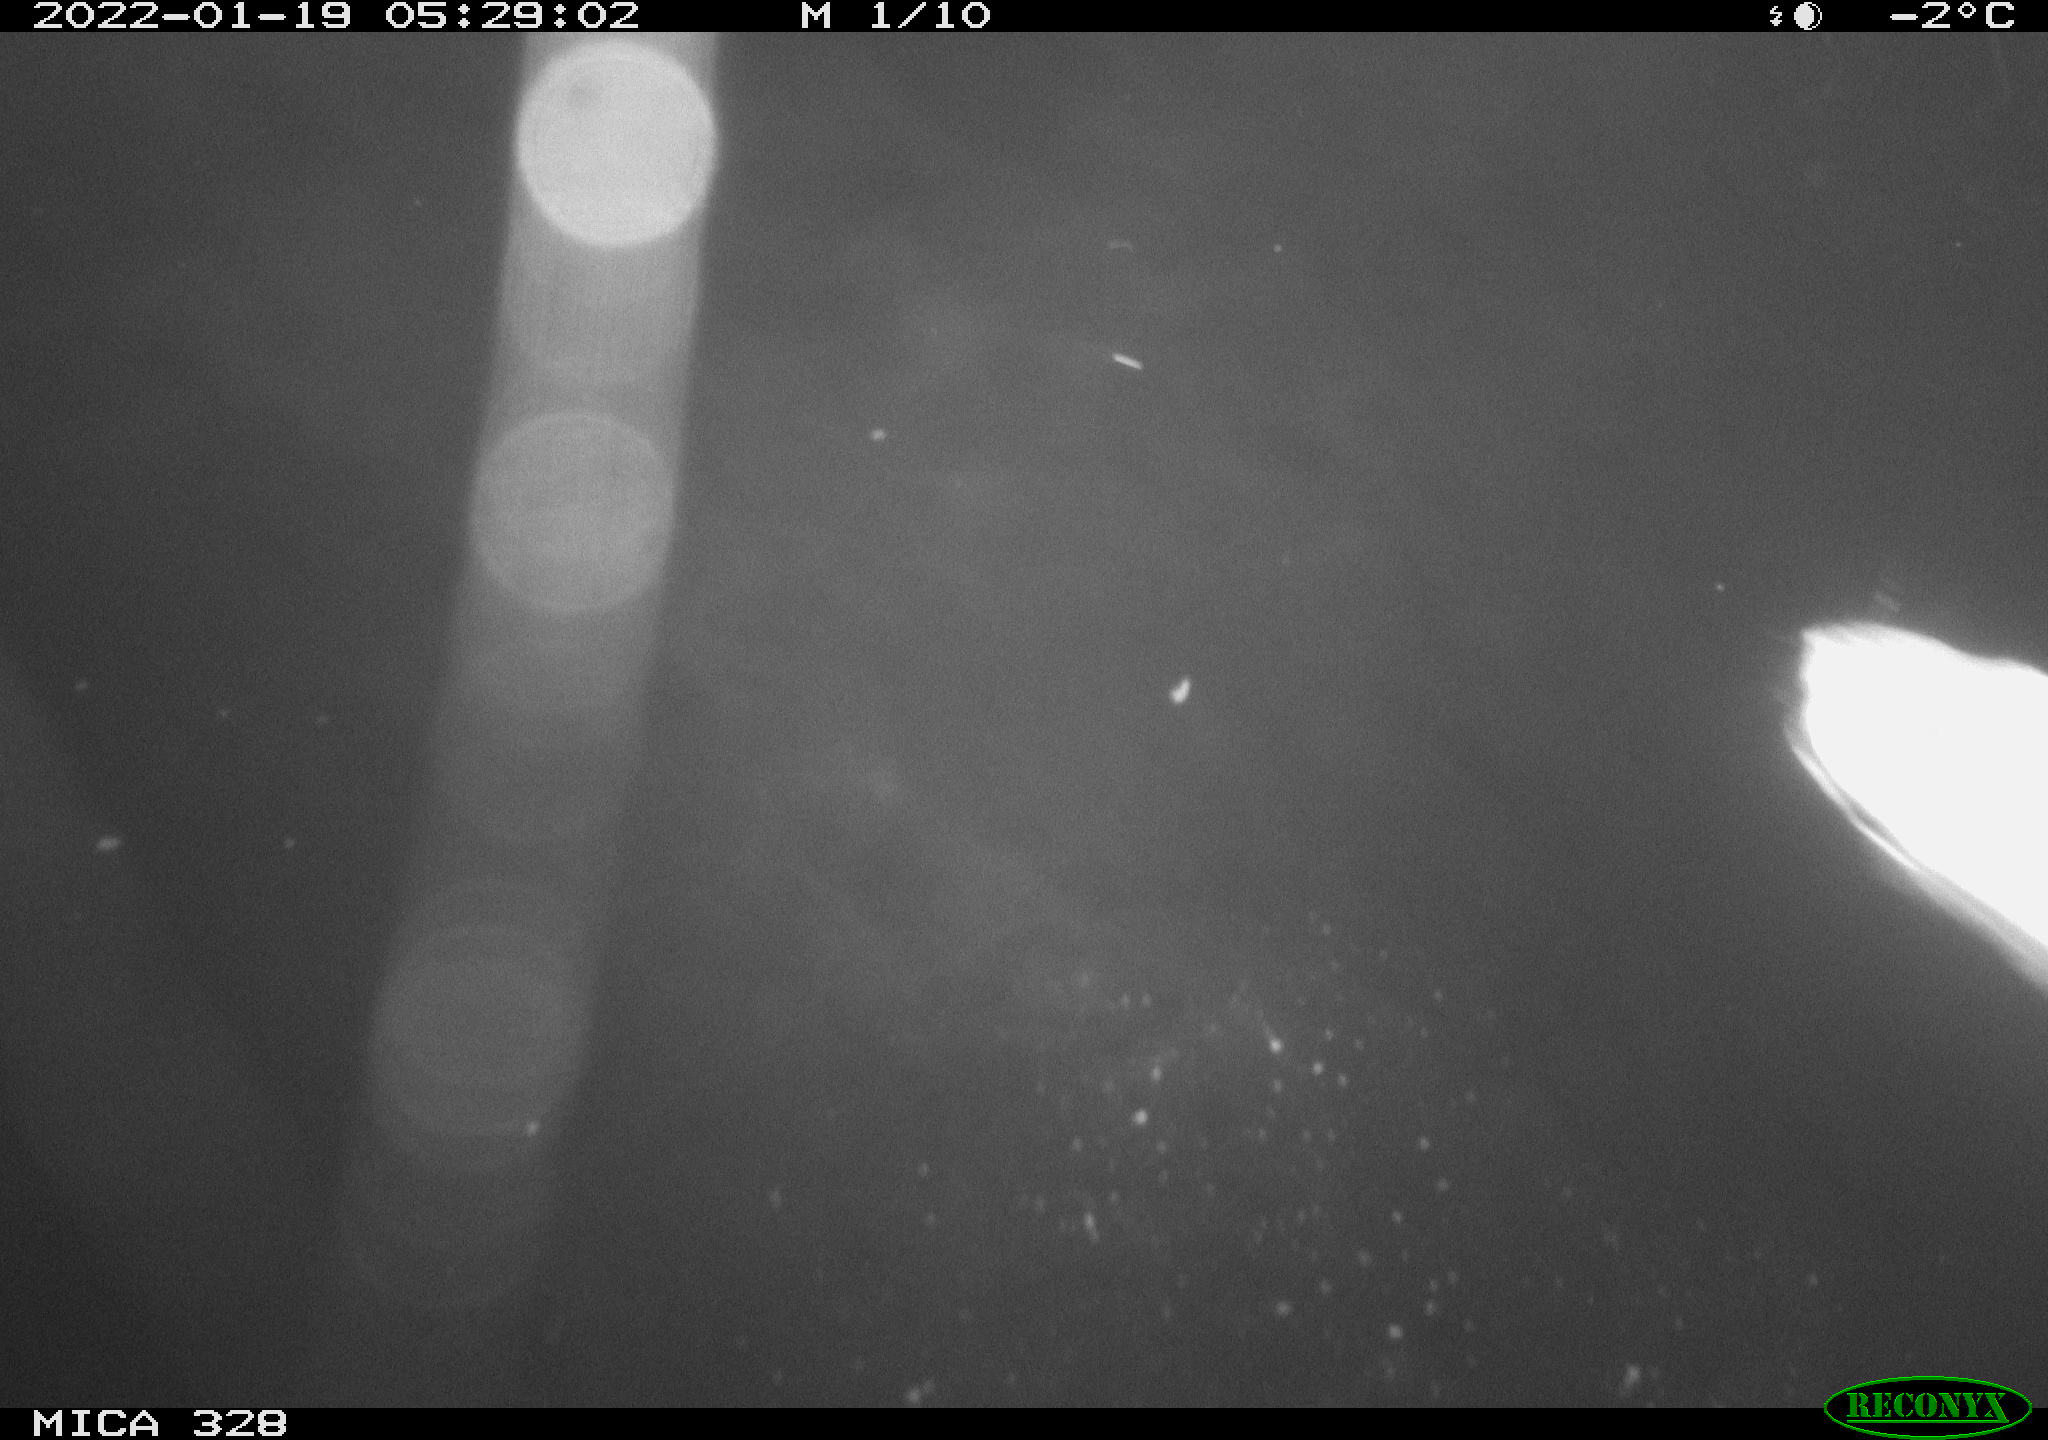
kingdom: Animalia
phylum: Chordata
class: Mammalia
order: Rodentia
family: Cricetidae
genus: Ondatra
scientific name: Ondatra zibethicus
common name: Muskrat
